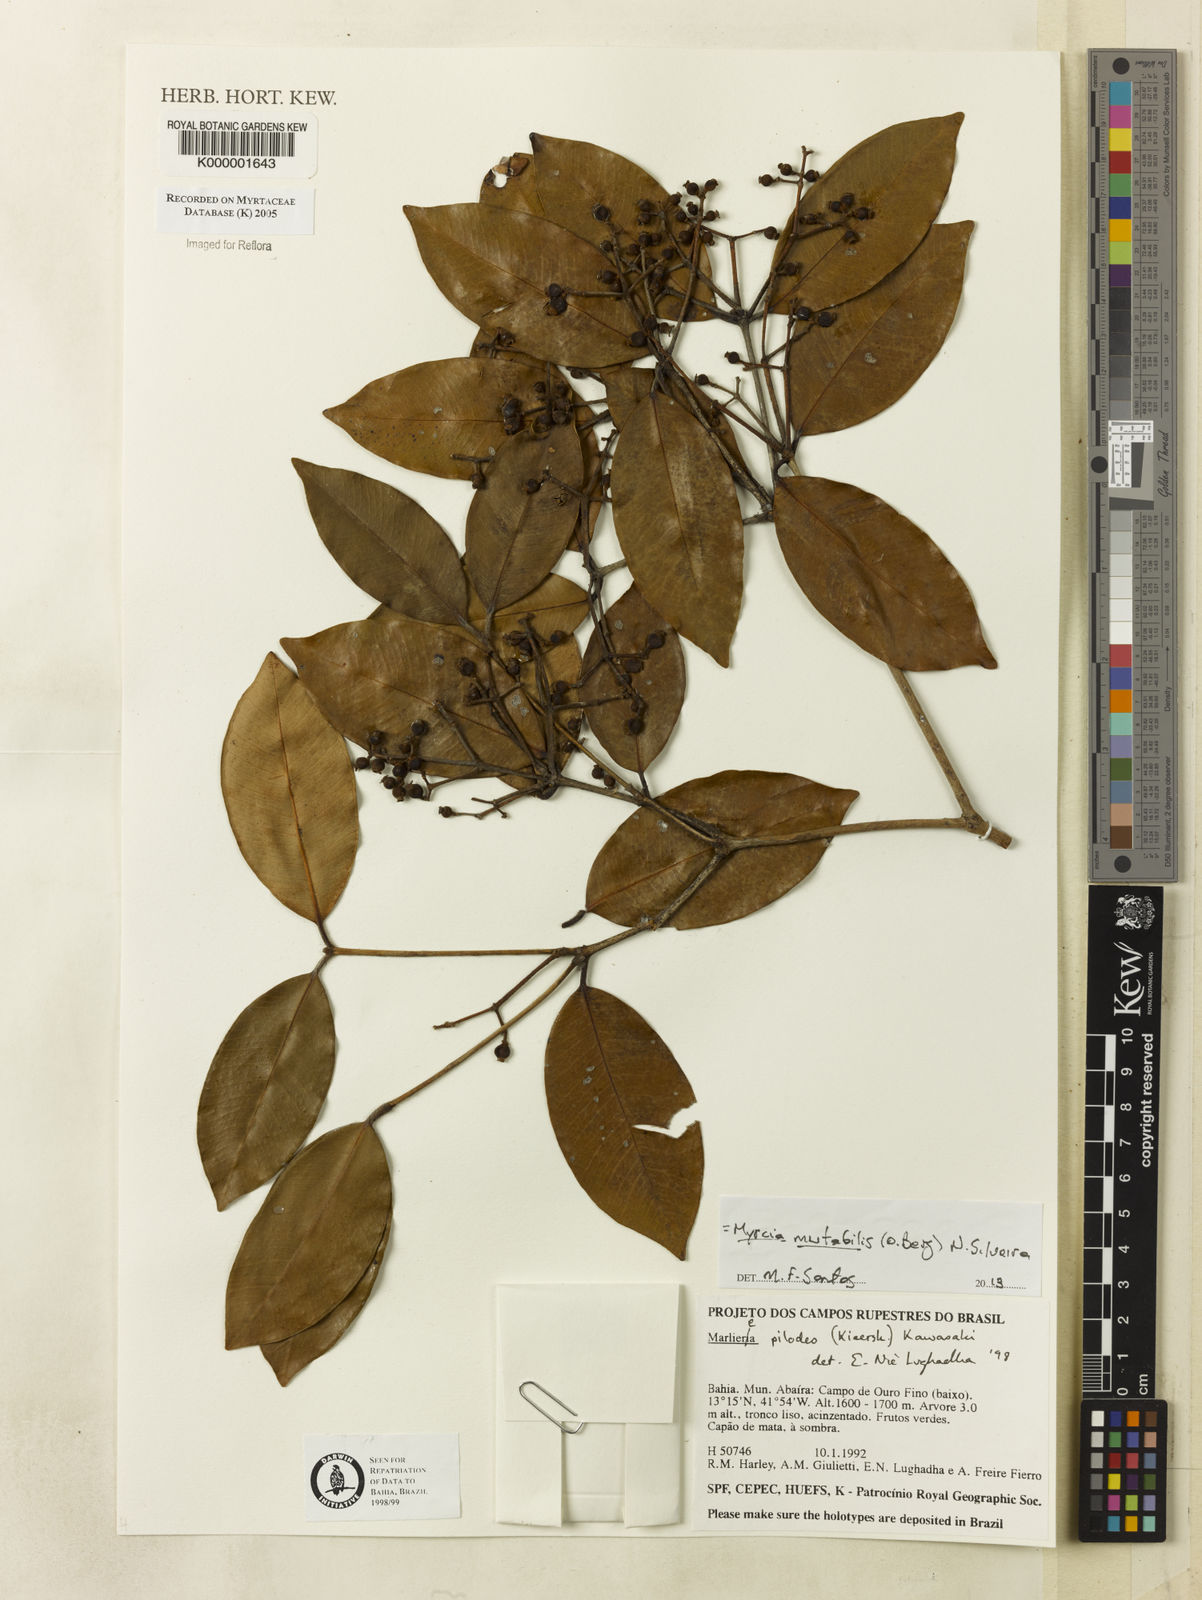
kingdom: Plantae
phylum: Tracheophyta
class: Magnoliopsida
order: Myrtales
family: Myrtaceae
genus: Myrcia
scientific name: Myrcia mutabilis
